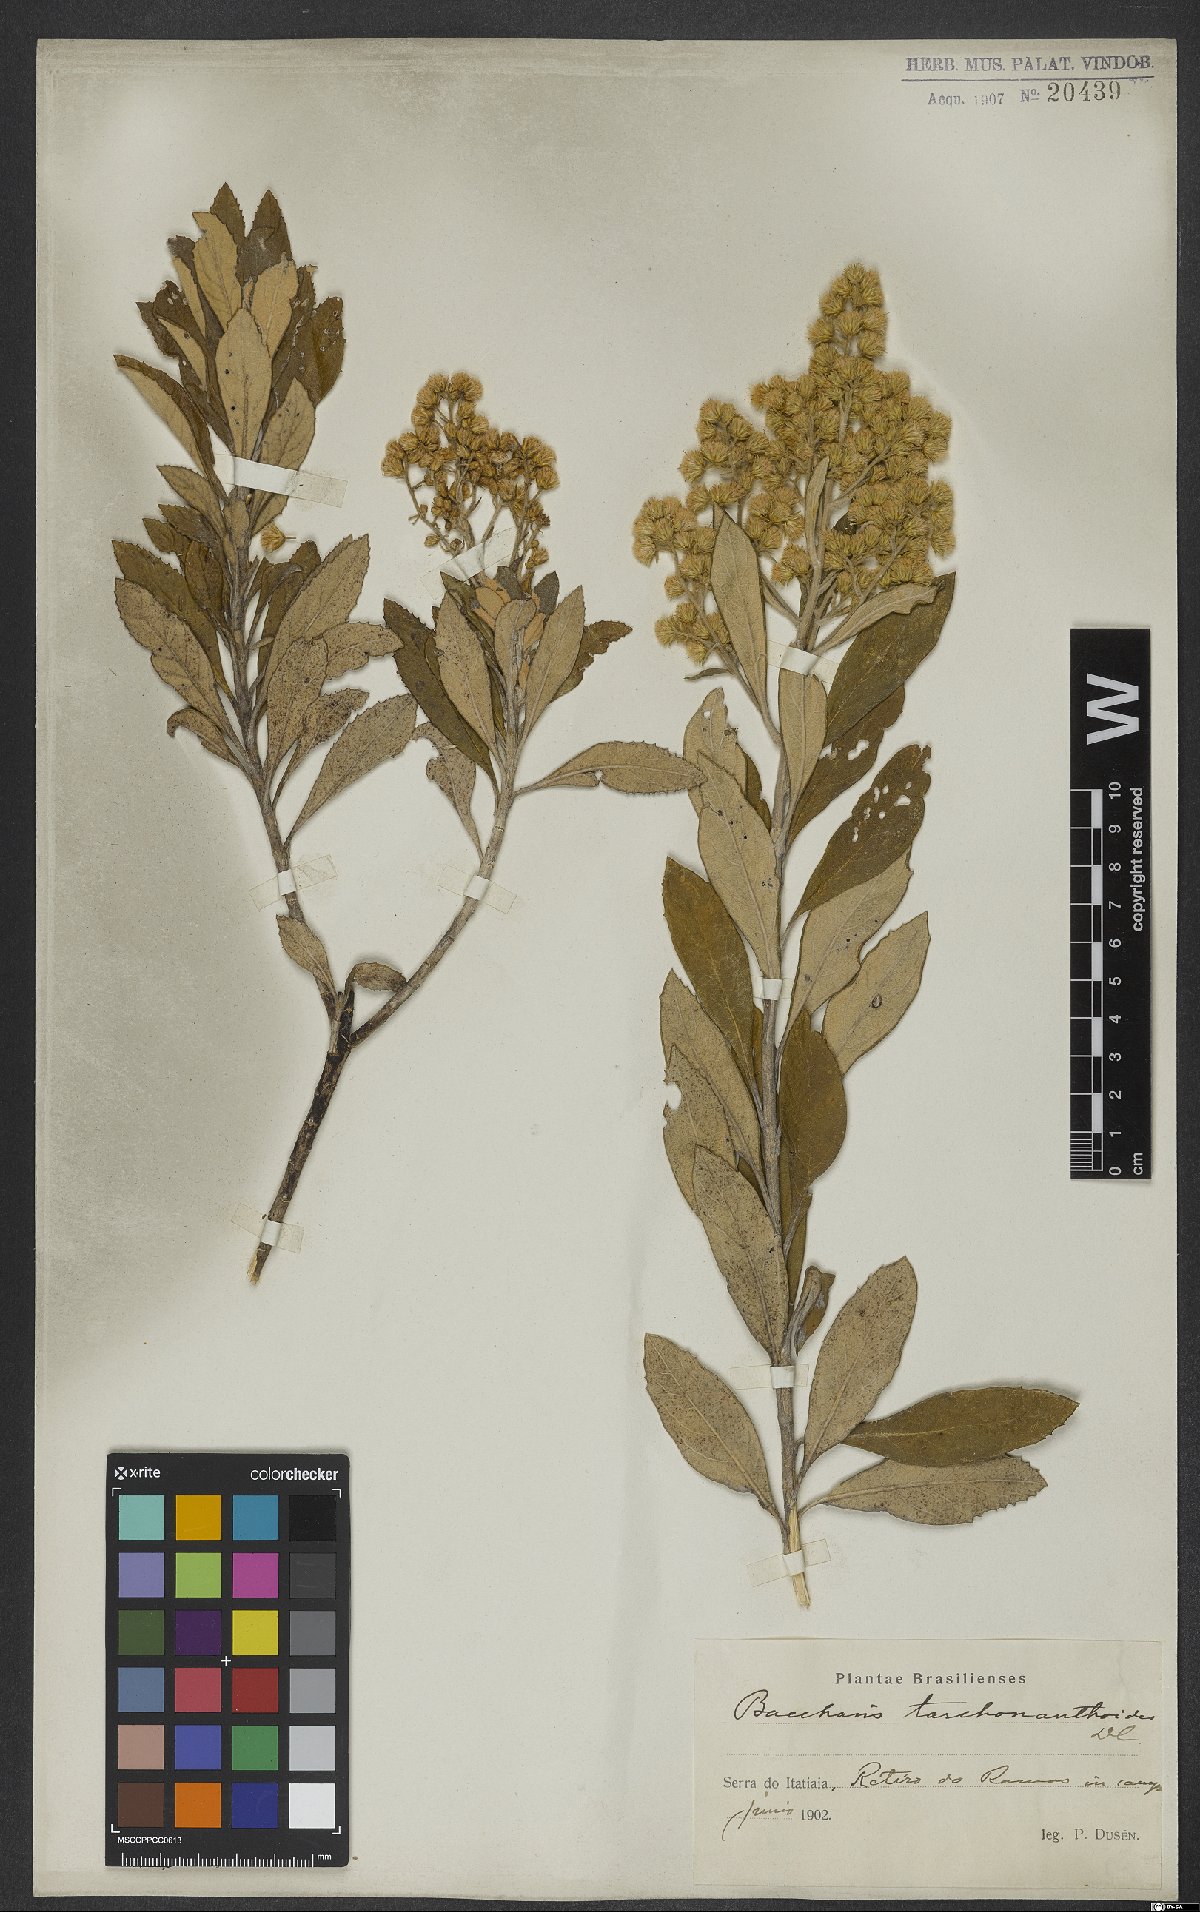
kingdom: Plantae
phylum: Tracheophyta
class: Magnoliopsida
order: Asterales
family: Asteraceae
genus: Baccharis
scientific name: Baccharis tarchonanthoides
